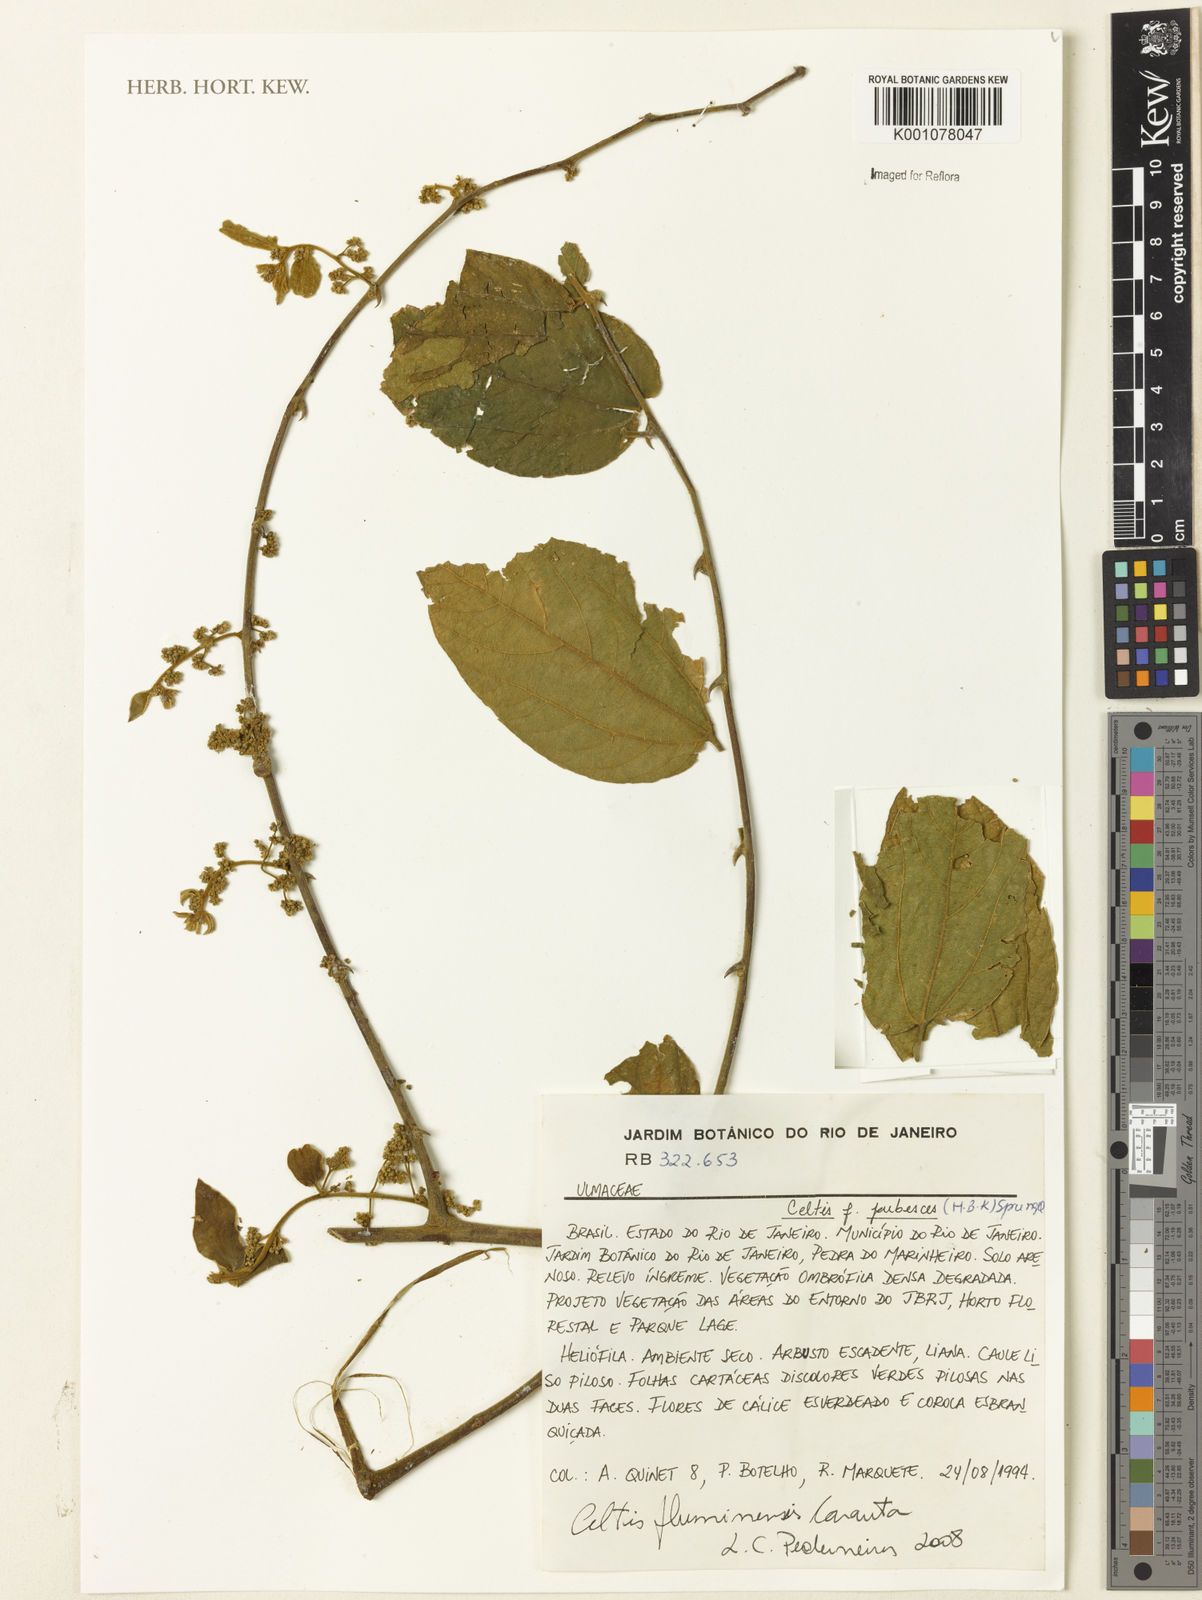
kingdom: Plantae
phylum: Tracheophyta
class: Magnoliopsida
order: Rosales
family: Cannabaceae
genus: Celtis
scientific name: Celtis brasiliensis
